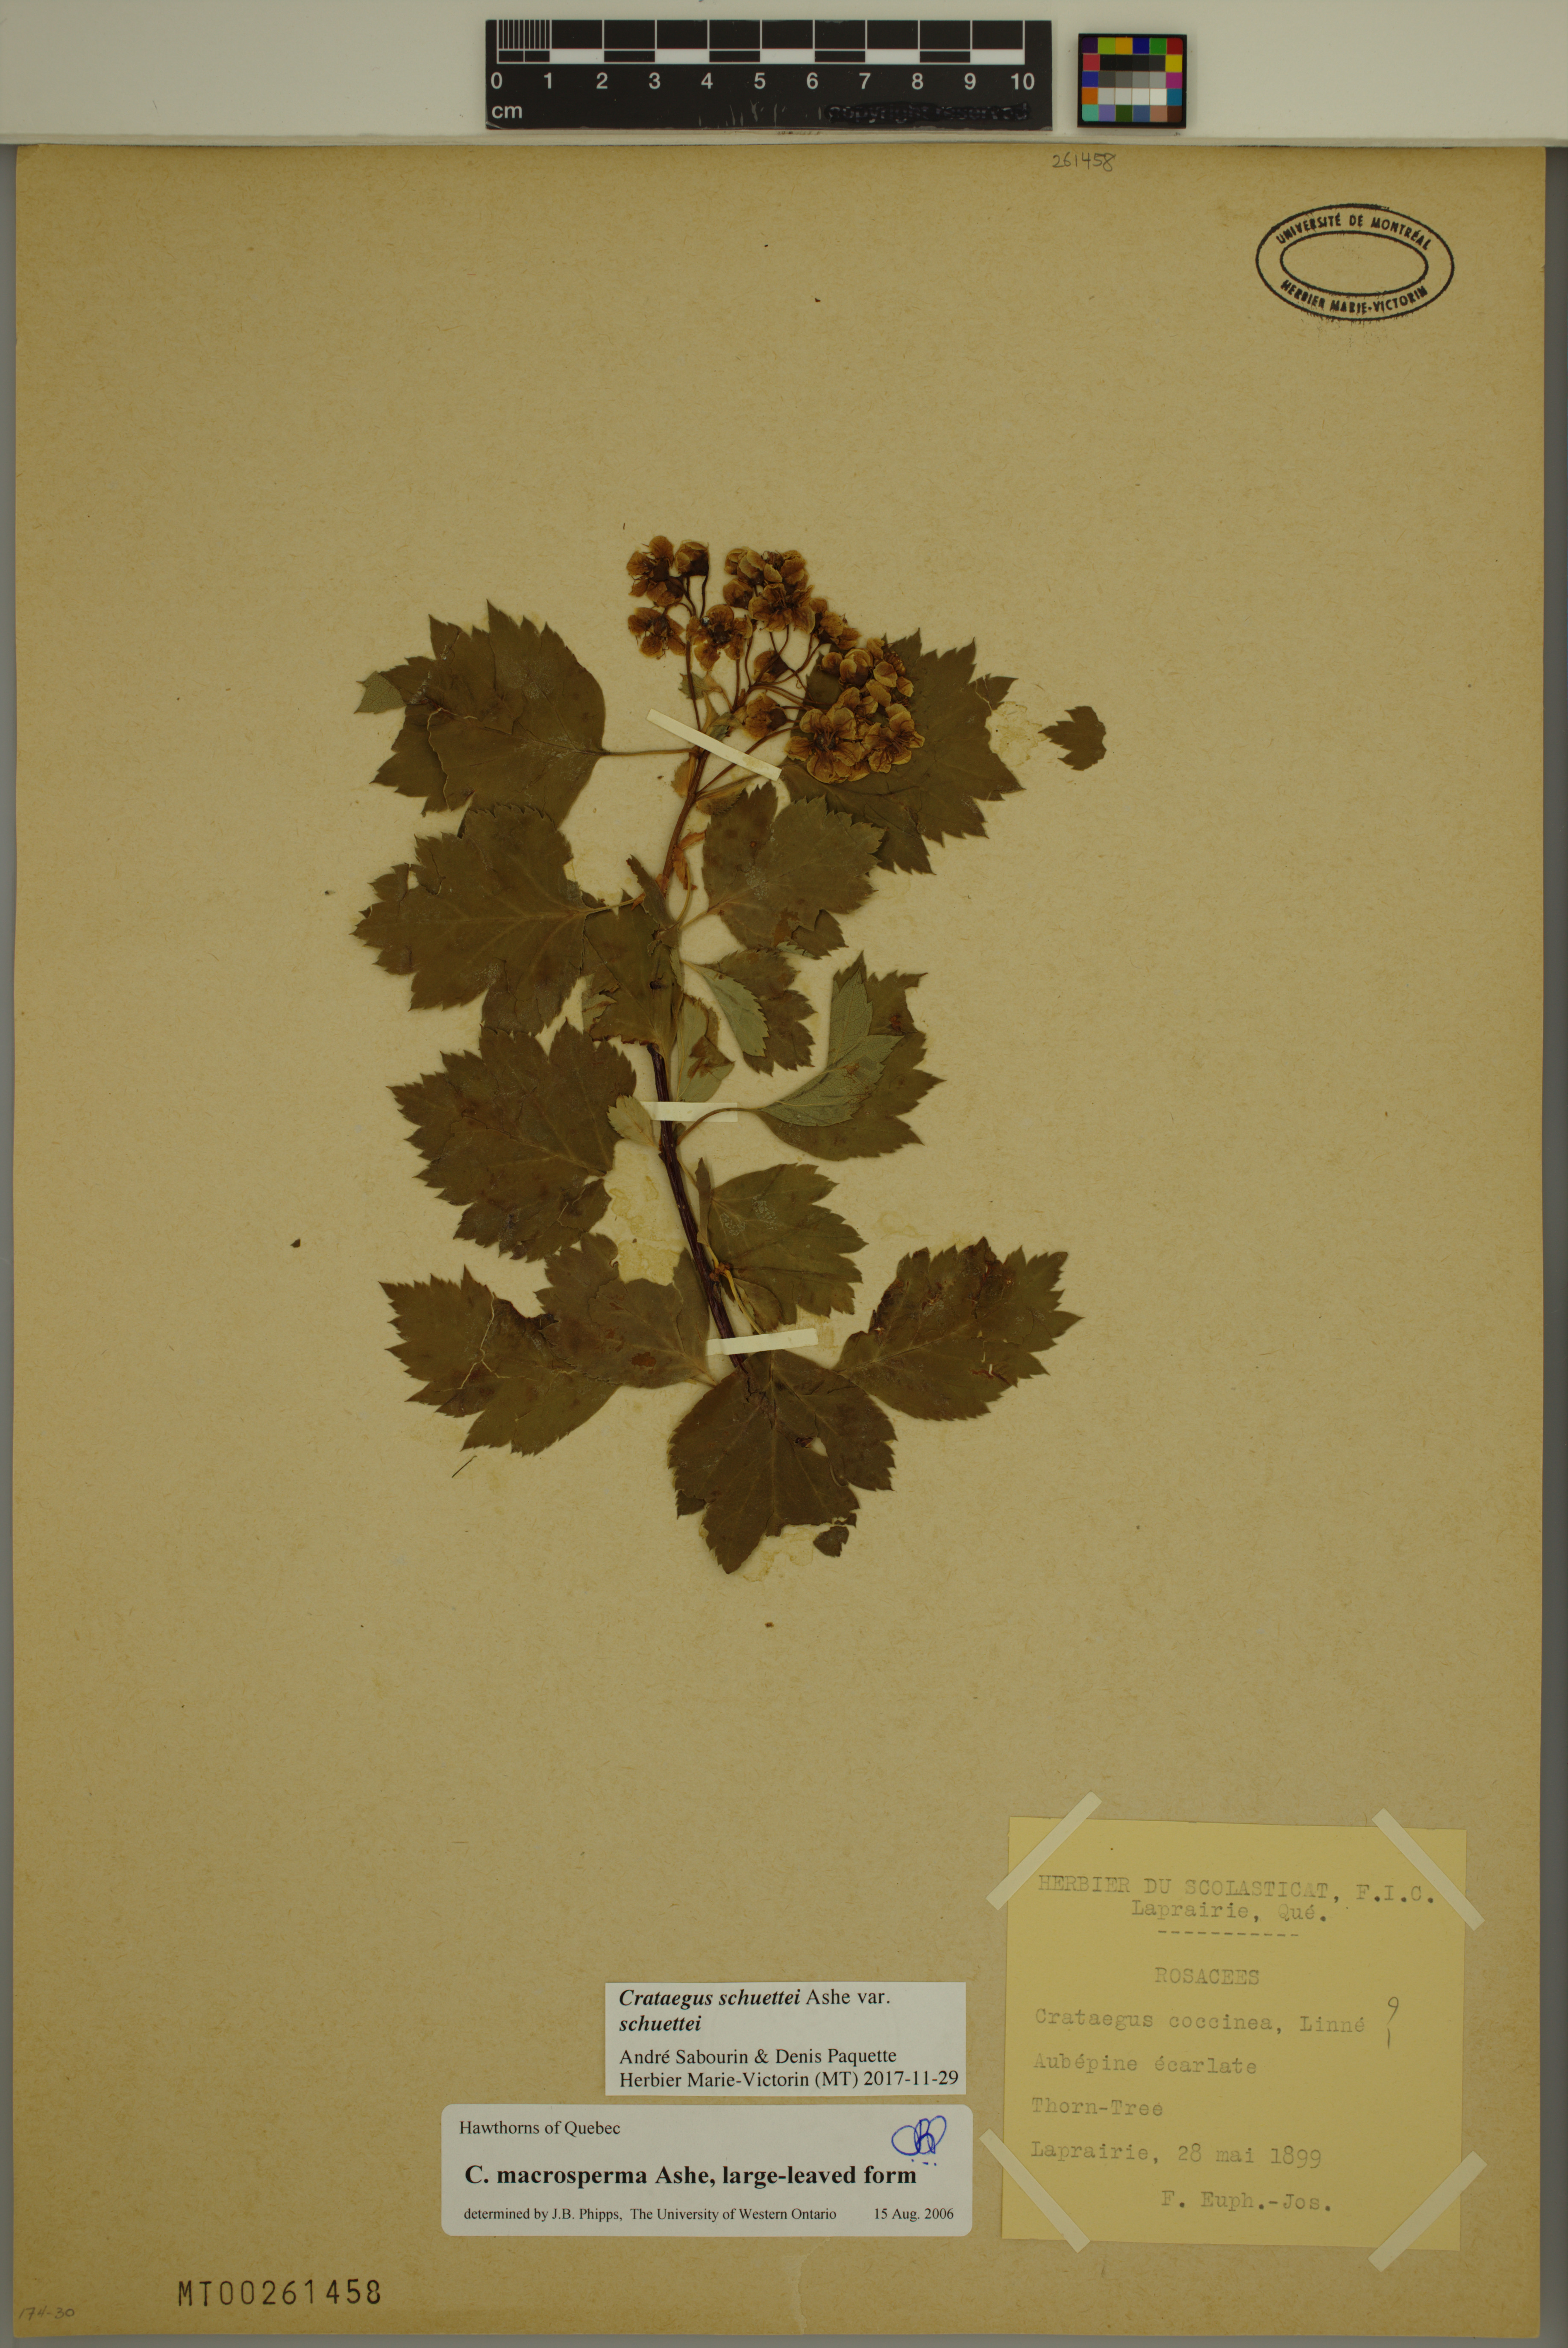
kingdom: Plantae
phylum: Tracheophyta
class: Magnoliopsida
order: Rosales
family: Rosaceae
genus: Crataegus
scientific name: Crataegus schuettei
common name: Schuette's hawthorn
